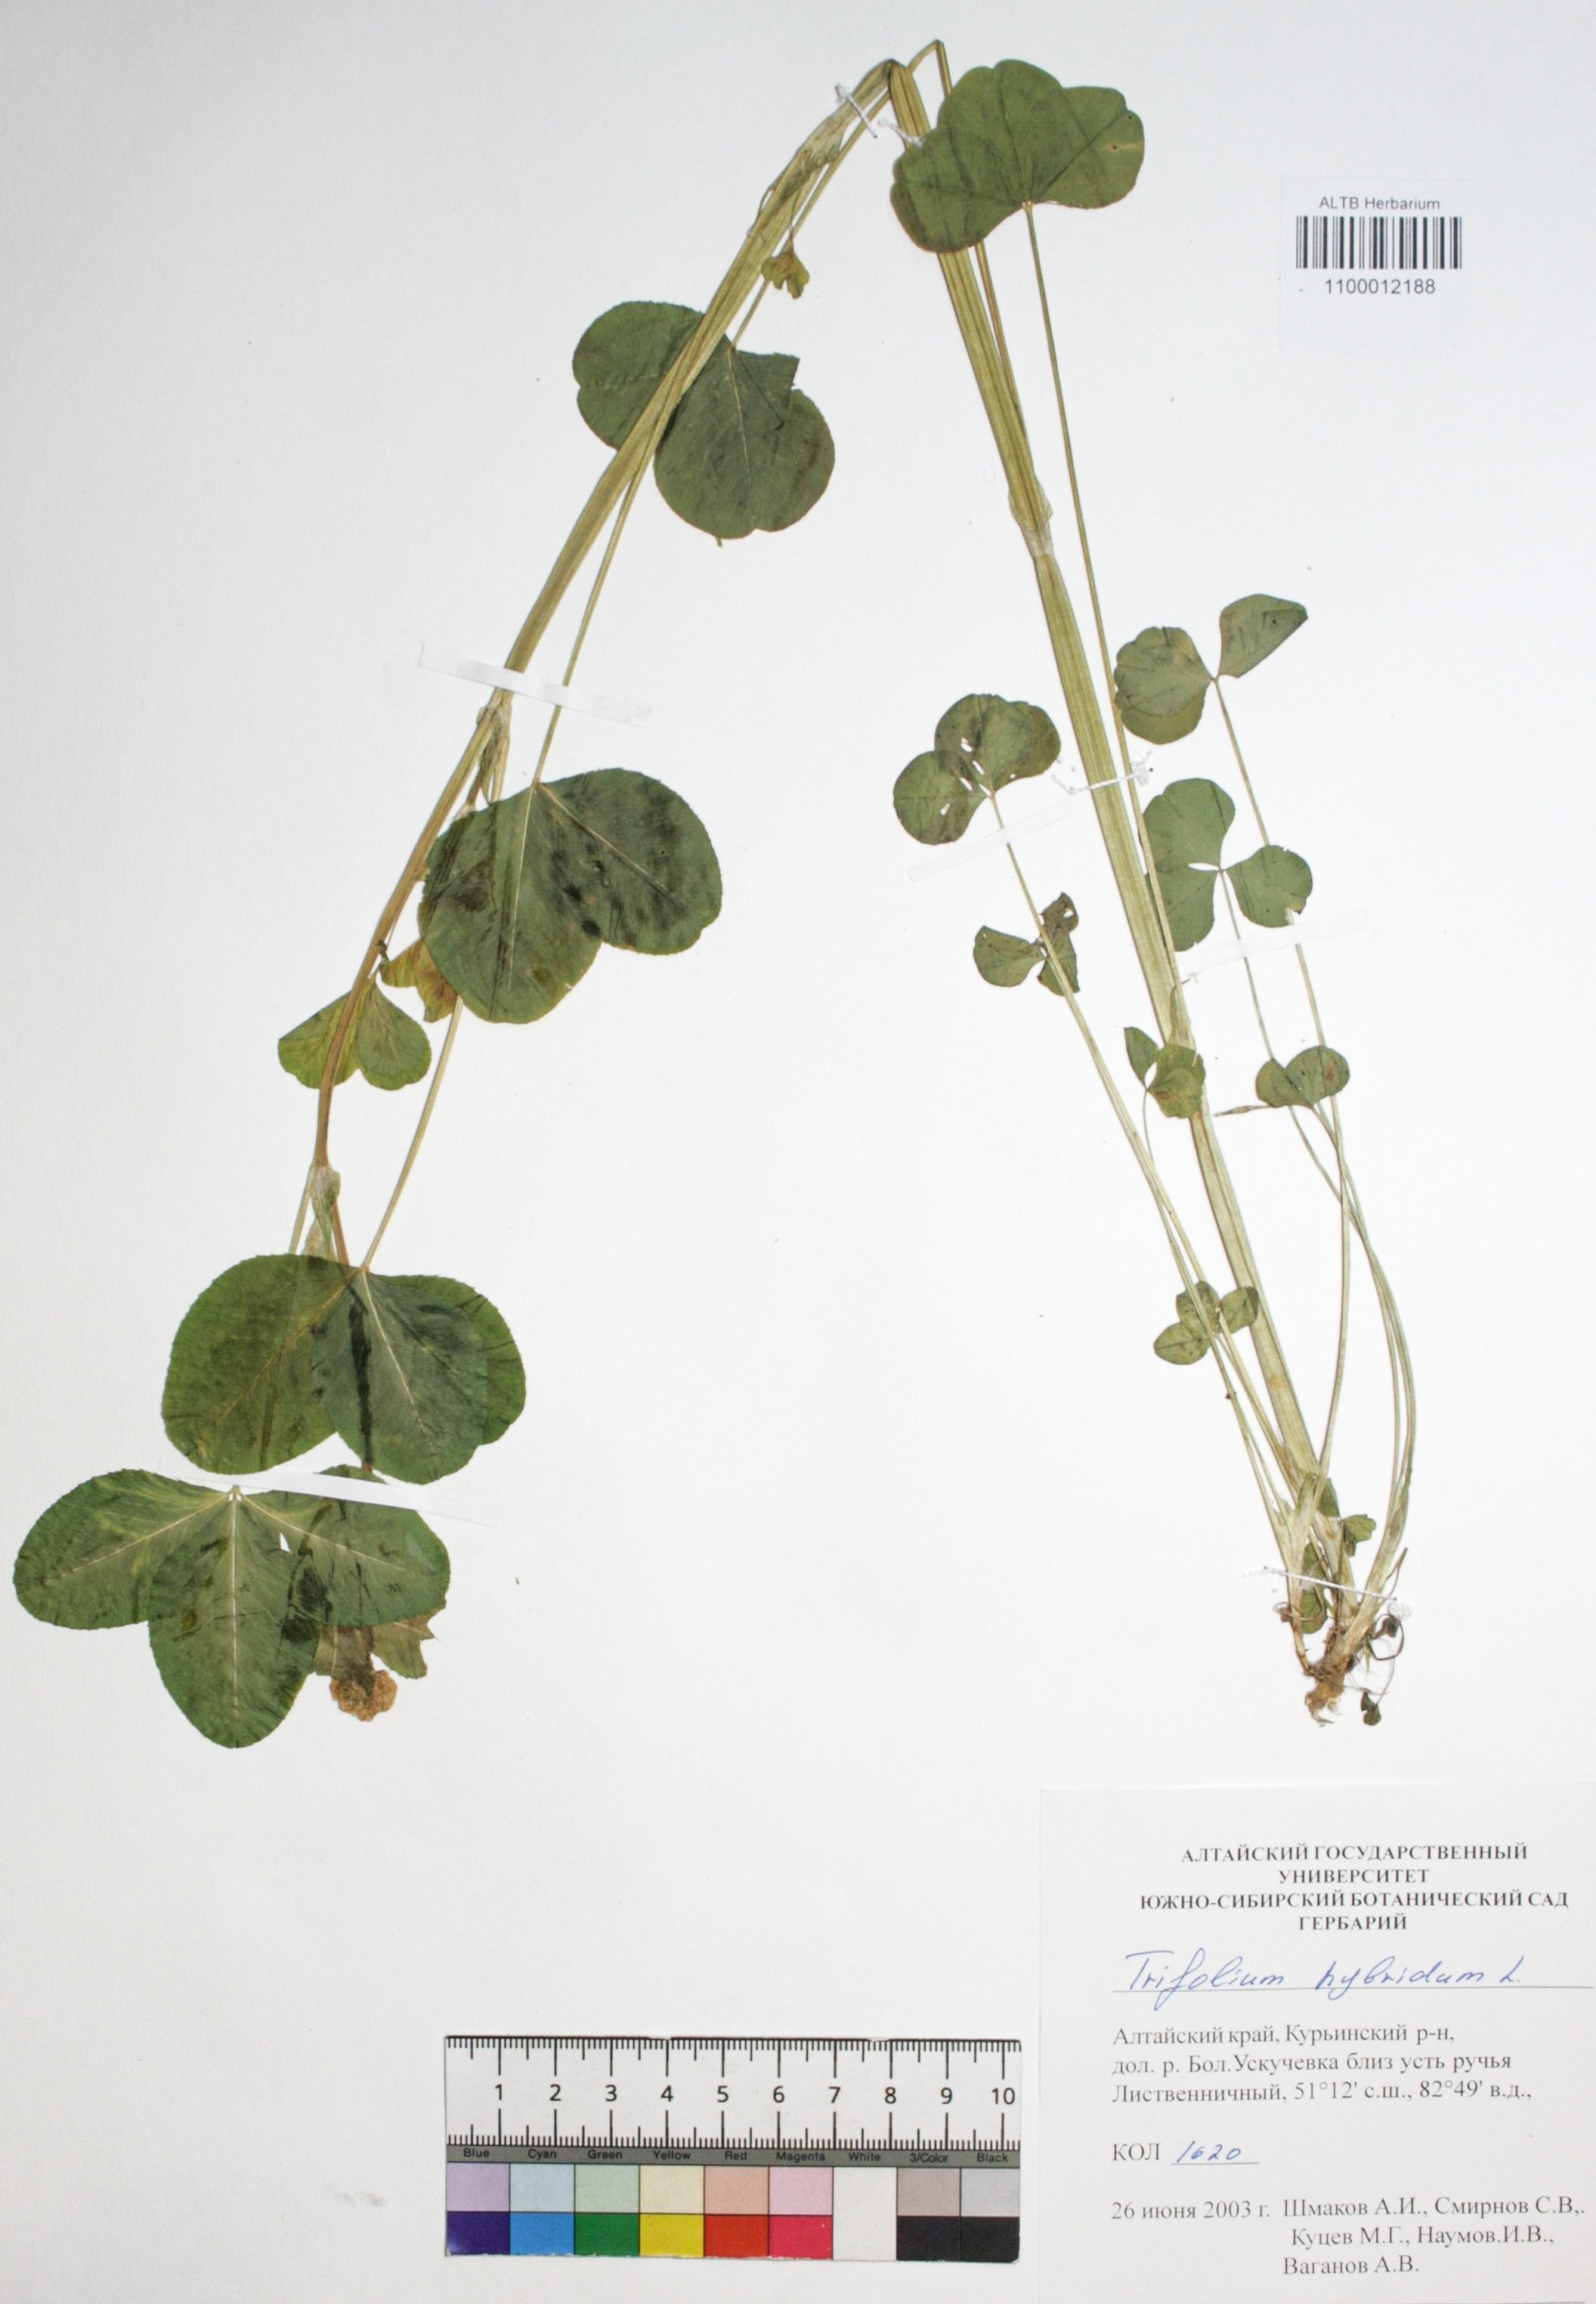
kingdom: Plantae
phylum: Tracheophyta
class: Magnoliopsida
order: Fabales
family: Fabaceae
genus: Trifolium
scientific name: Trifolium hybridum
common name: Alsike clover
